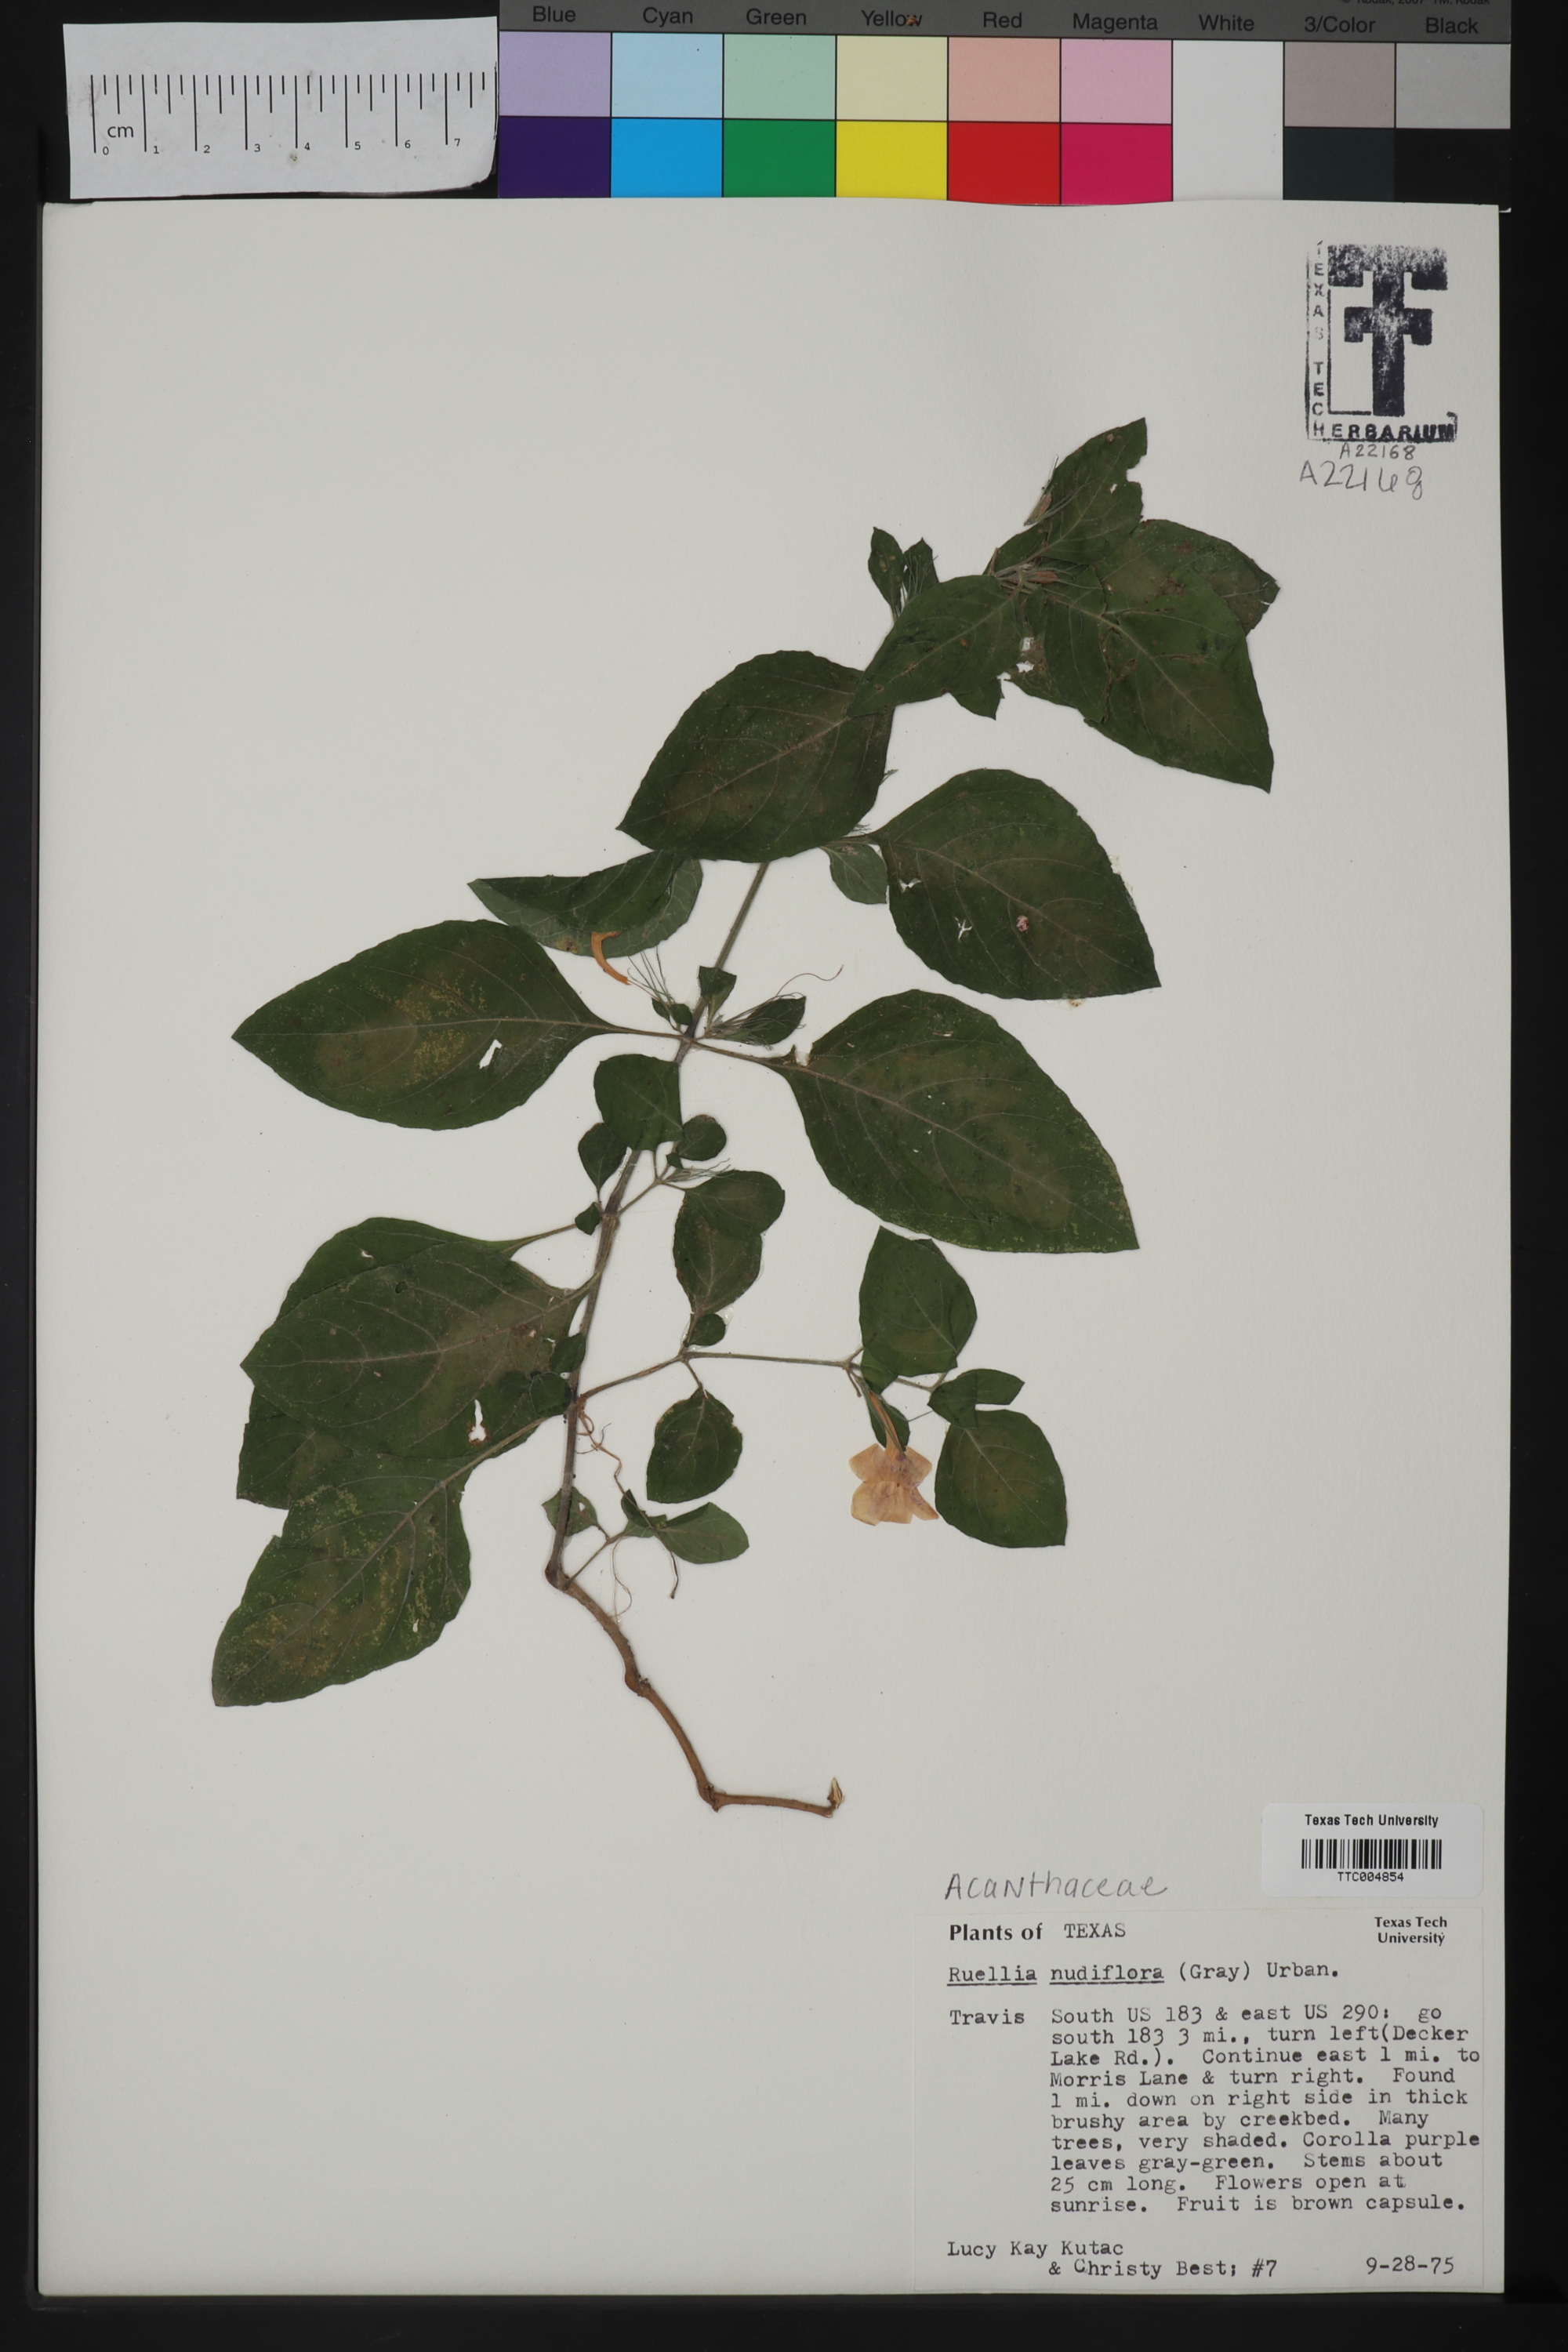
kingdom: Plantae
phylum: Tracheophyta
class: Magnoliopsida
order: Lamiales
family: Acanthaceae
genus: Ruellia
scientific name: Ruellia ciliatiflora
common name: Hairyflower wild petunia
